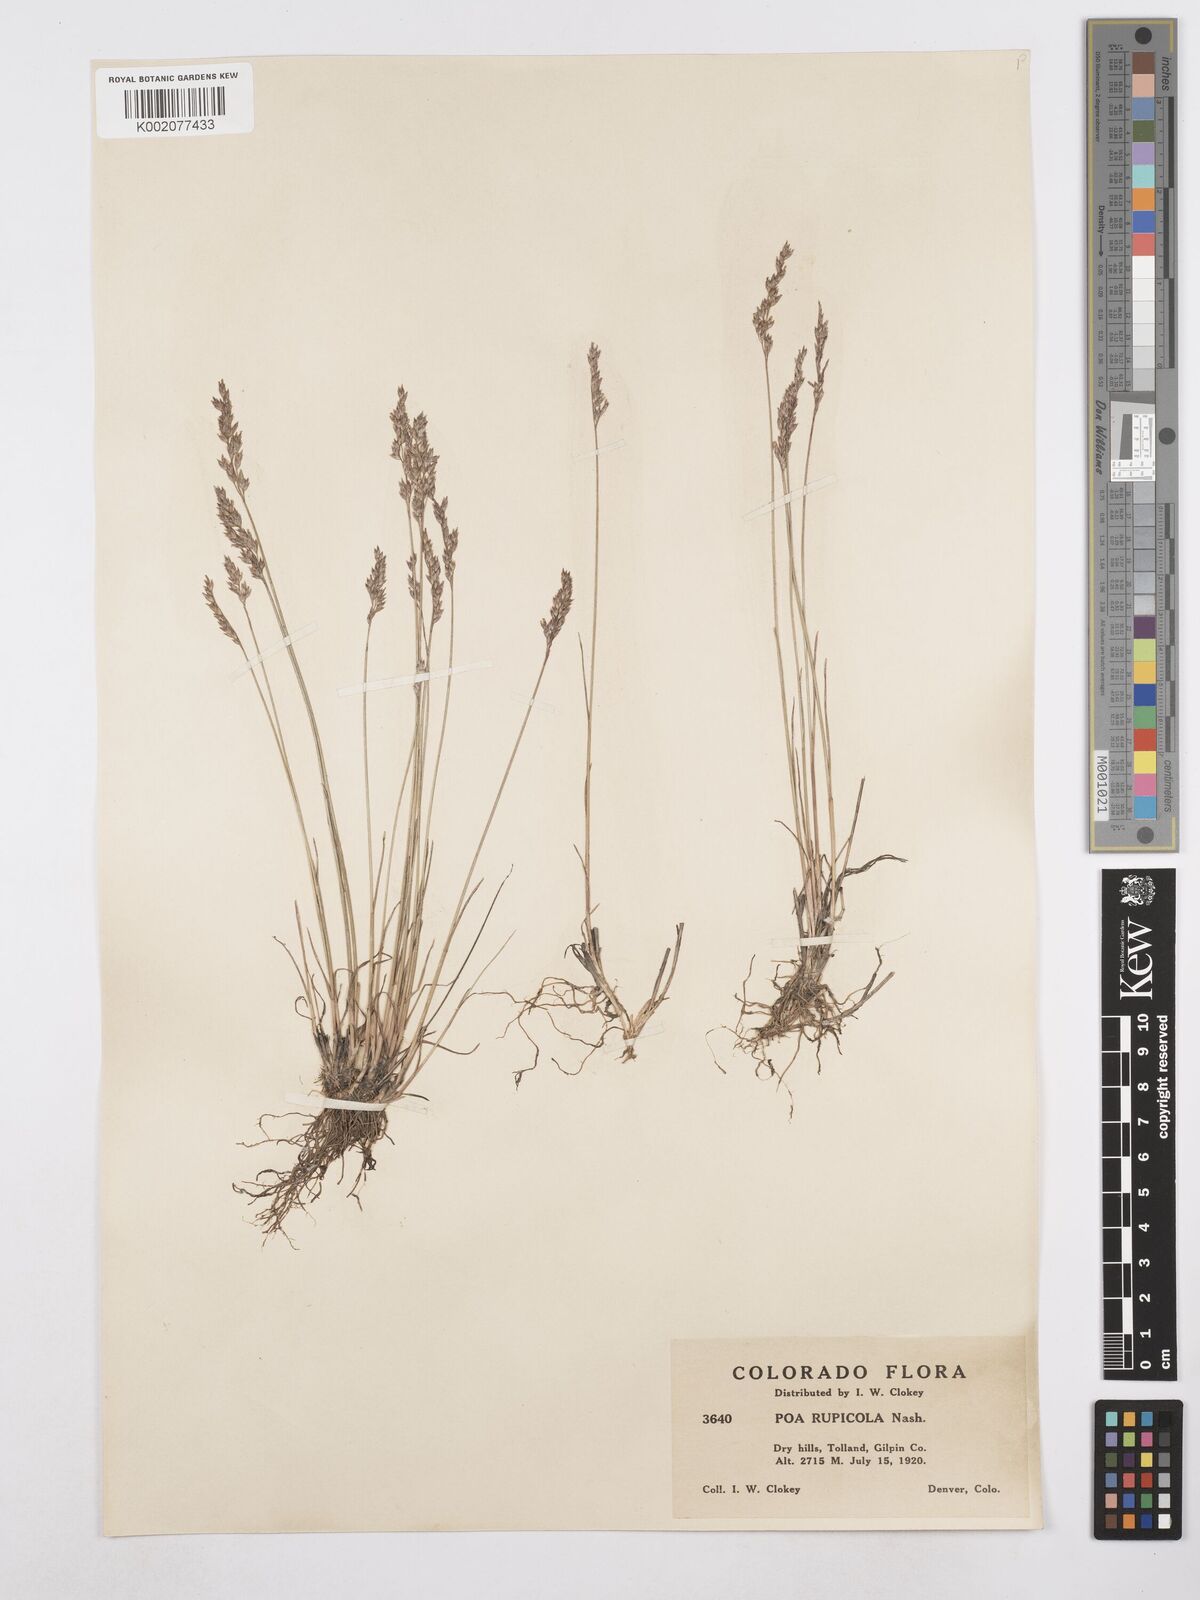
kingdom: Plantae
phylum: Tracheophyta
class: Liliopsida
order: Poales
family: Poaceae
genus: Poa
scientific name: Poa glauca
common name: Glaucous bluegrass
